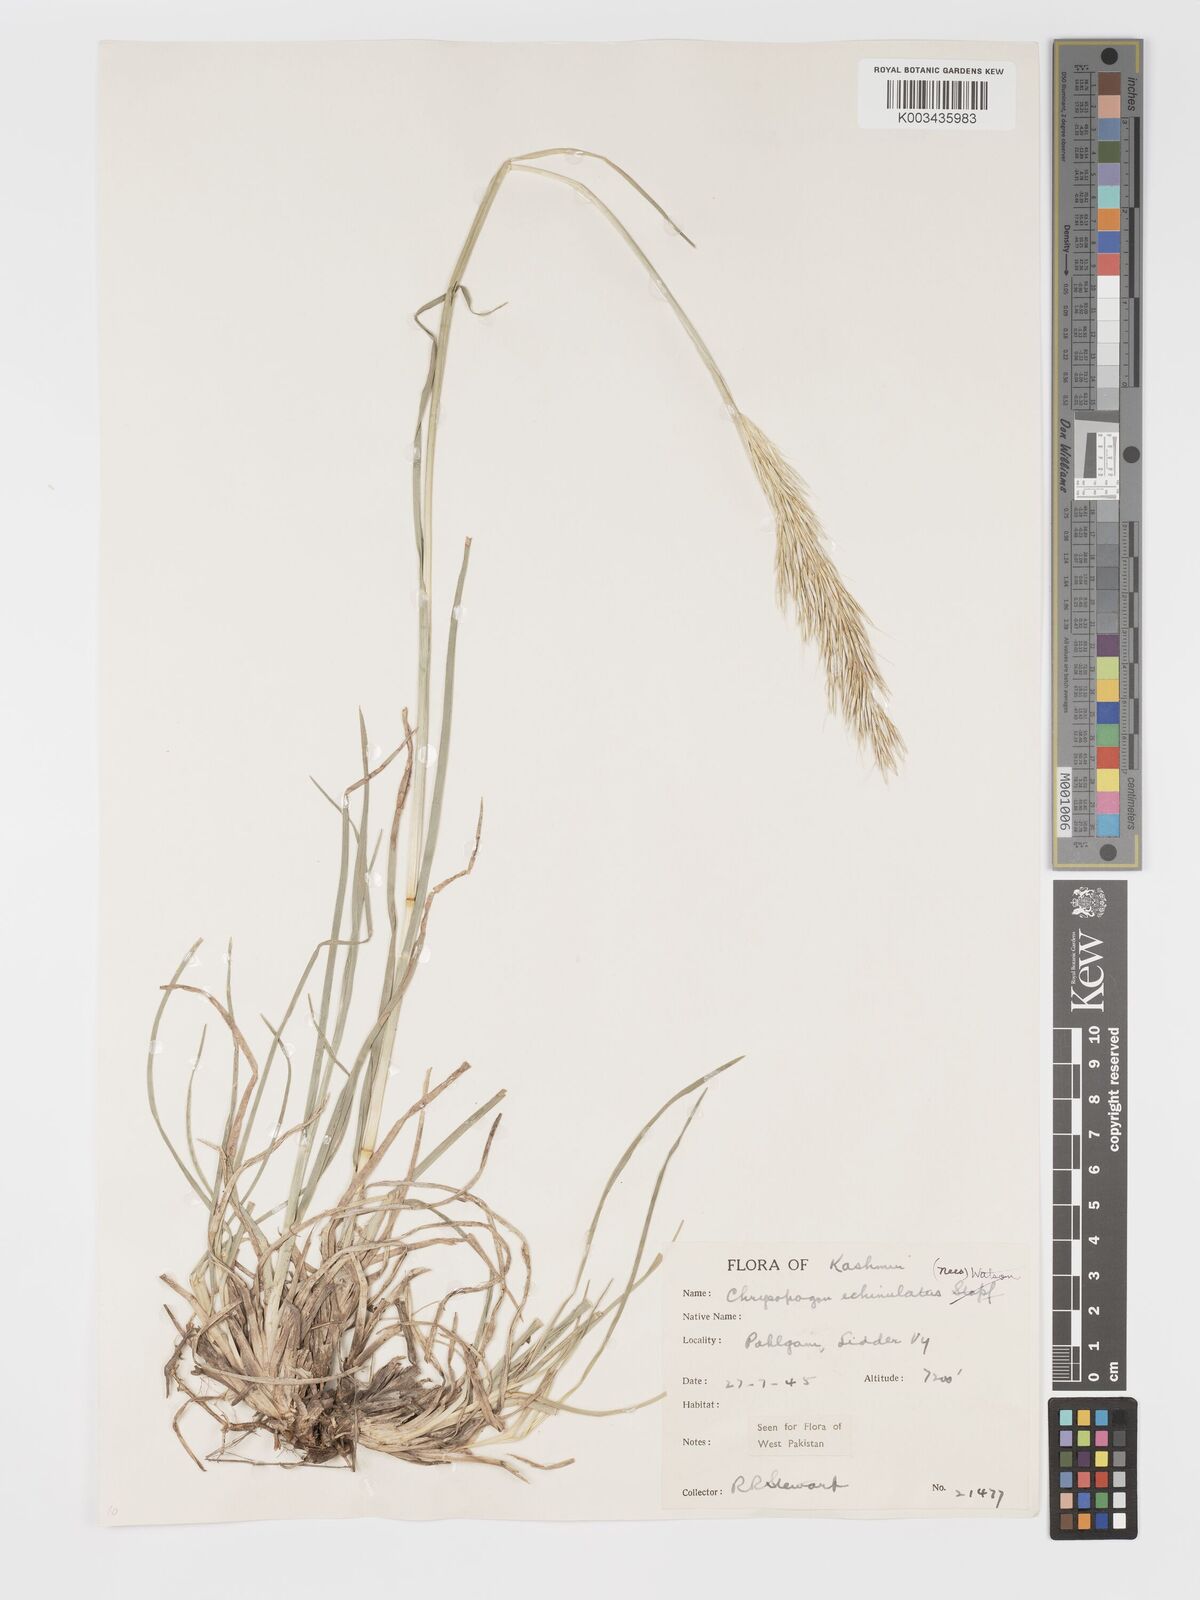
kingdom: Plantae
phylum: Tracheophyta
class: Liliopsida
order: Poales
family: Poaceae
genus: Chrysopogon
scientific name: Chrysopogon gryllus
